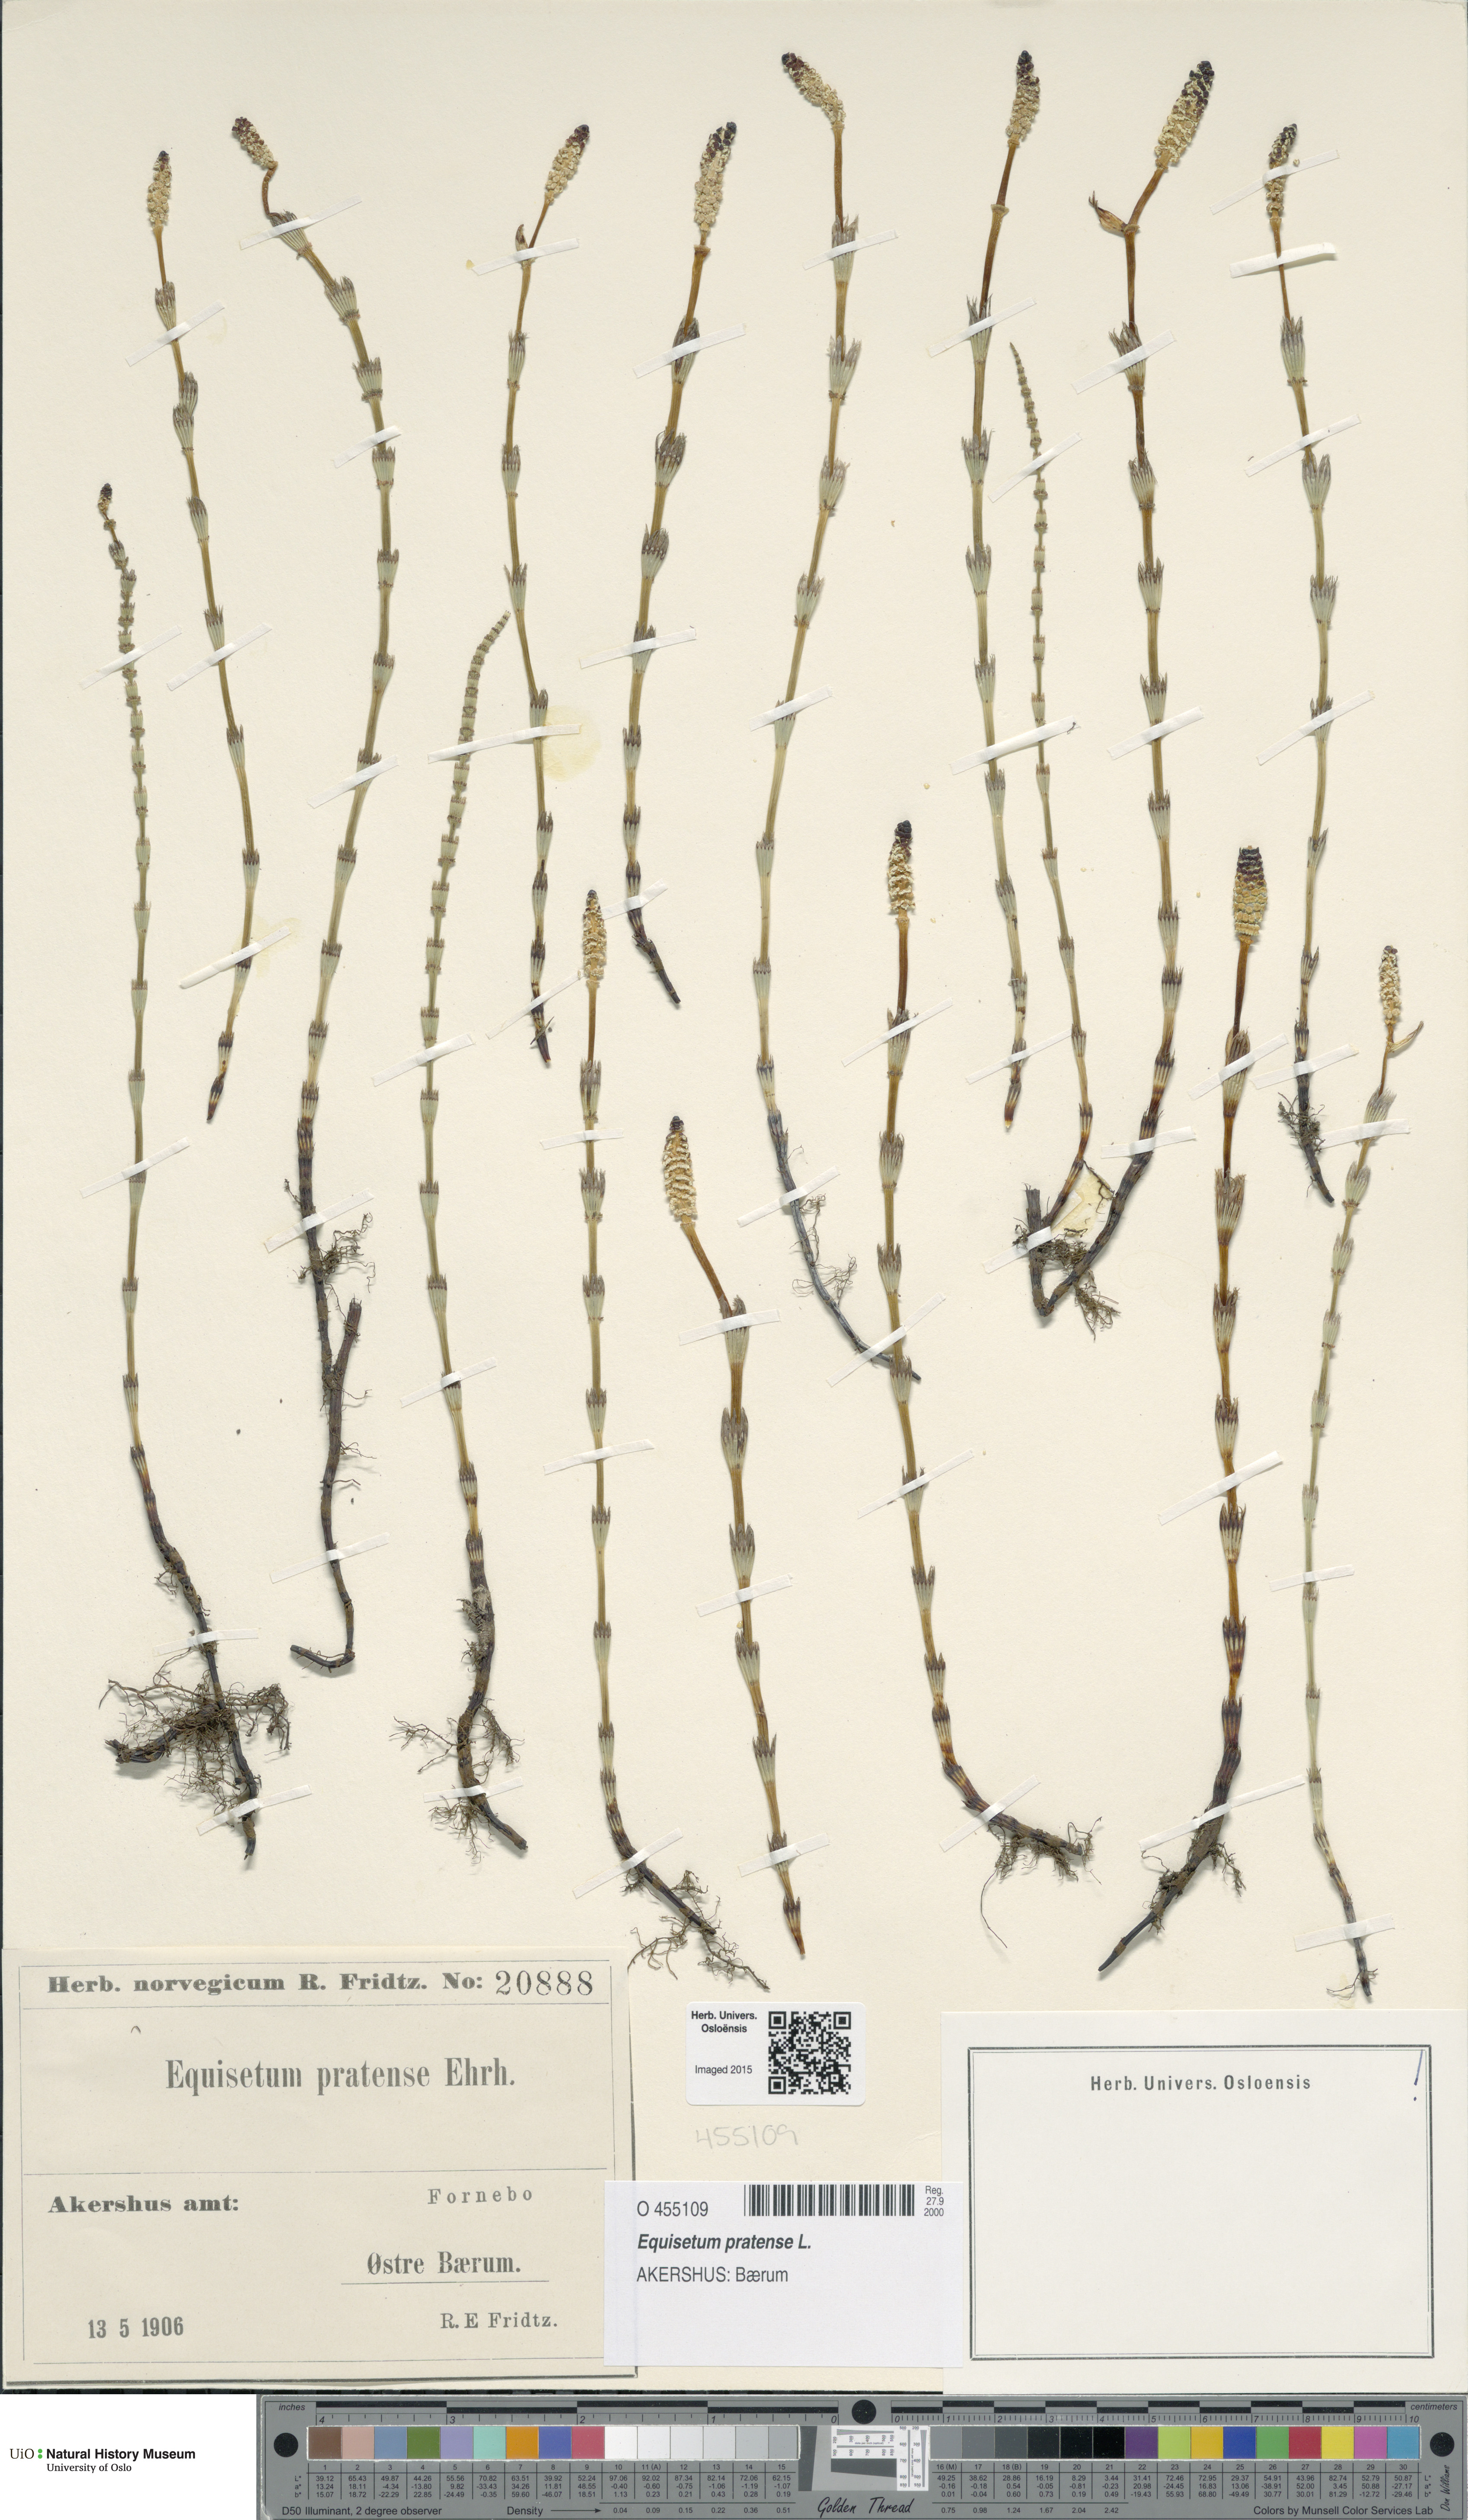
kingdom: Plantae
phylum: Tracheophyta
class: Polypodiopsida
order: Equisetales
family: Equisetaceae
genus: Equisetum
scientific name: Equisetum pratense
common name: Meadow horsetail
